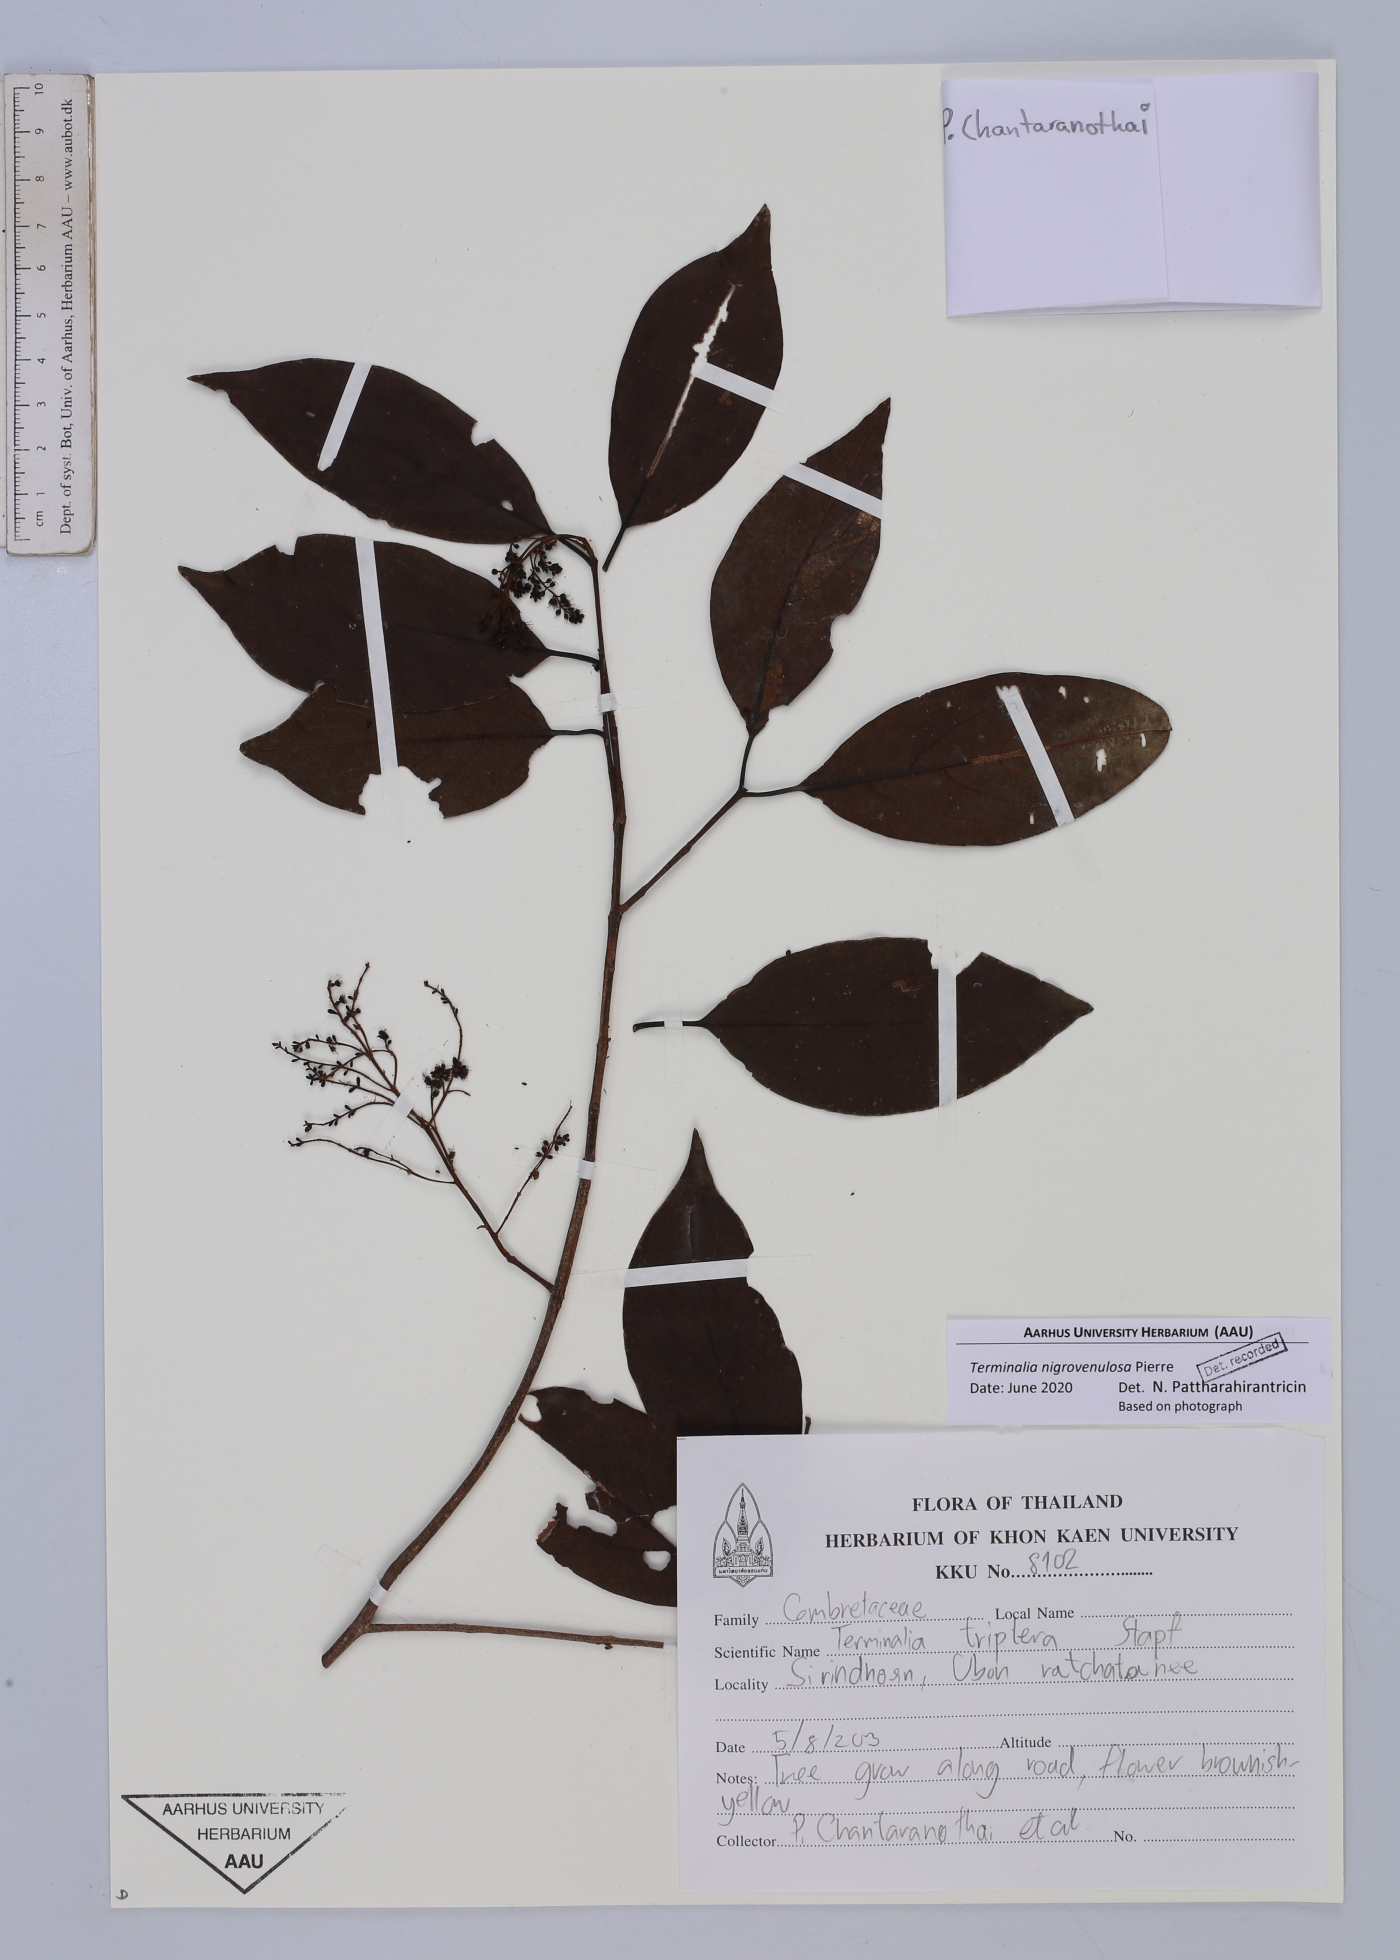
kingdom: Plantae
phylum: Tracheophyta
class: Magnoliopsida
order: Myrtales
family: Combretaceae
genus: Terminalia
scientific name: Terminalia triptera
